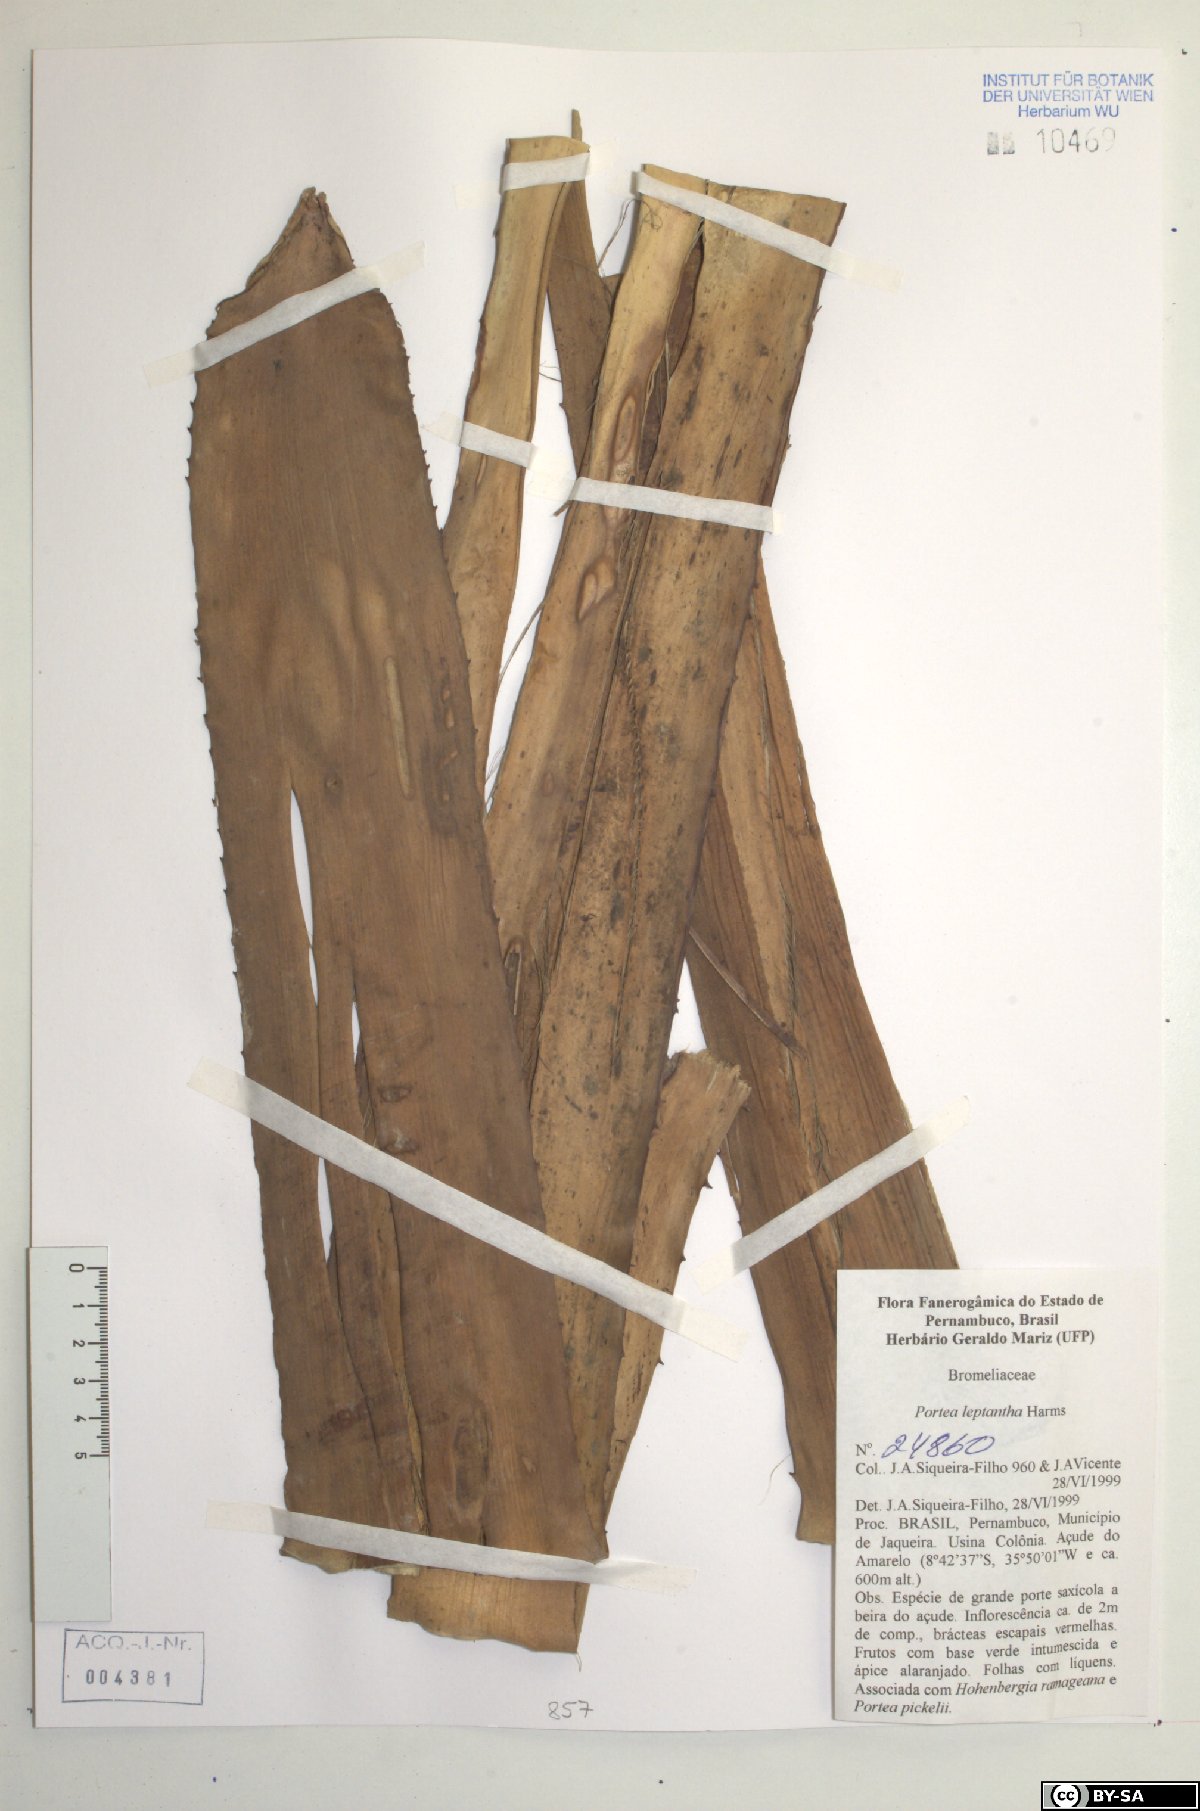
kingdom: Plantae
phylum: Tracheophyta
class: Liliopsida
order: Poales
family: Bromeliaceae
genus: Aechmea
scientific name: Aechmea leptantha
